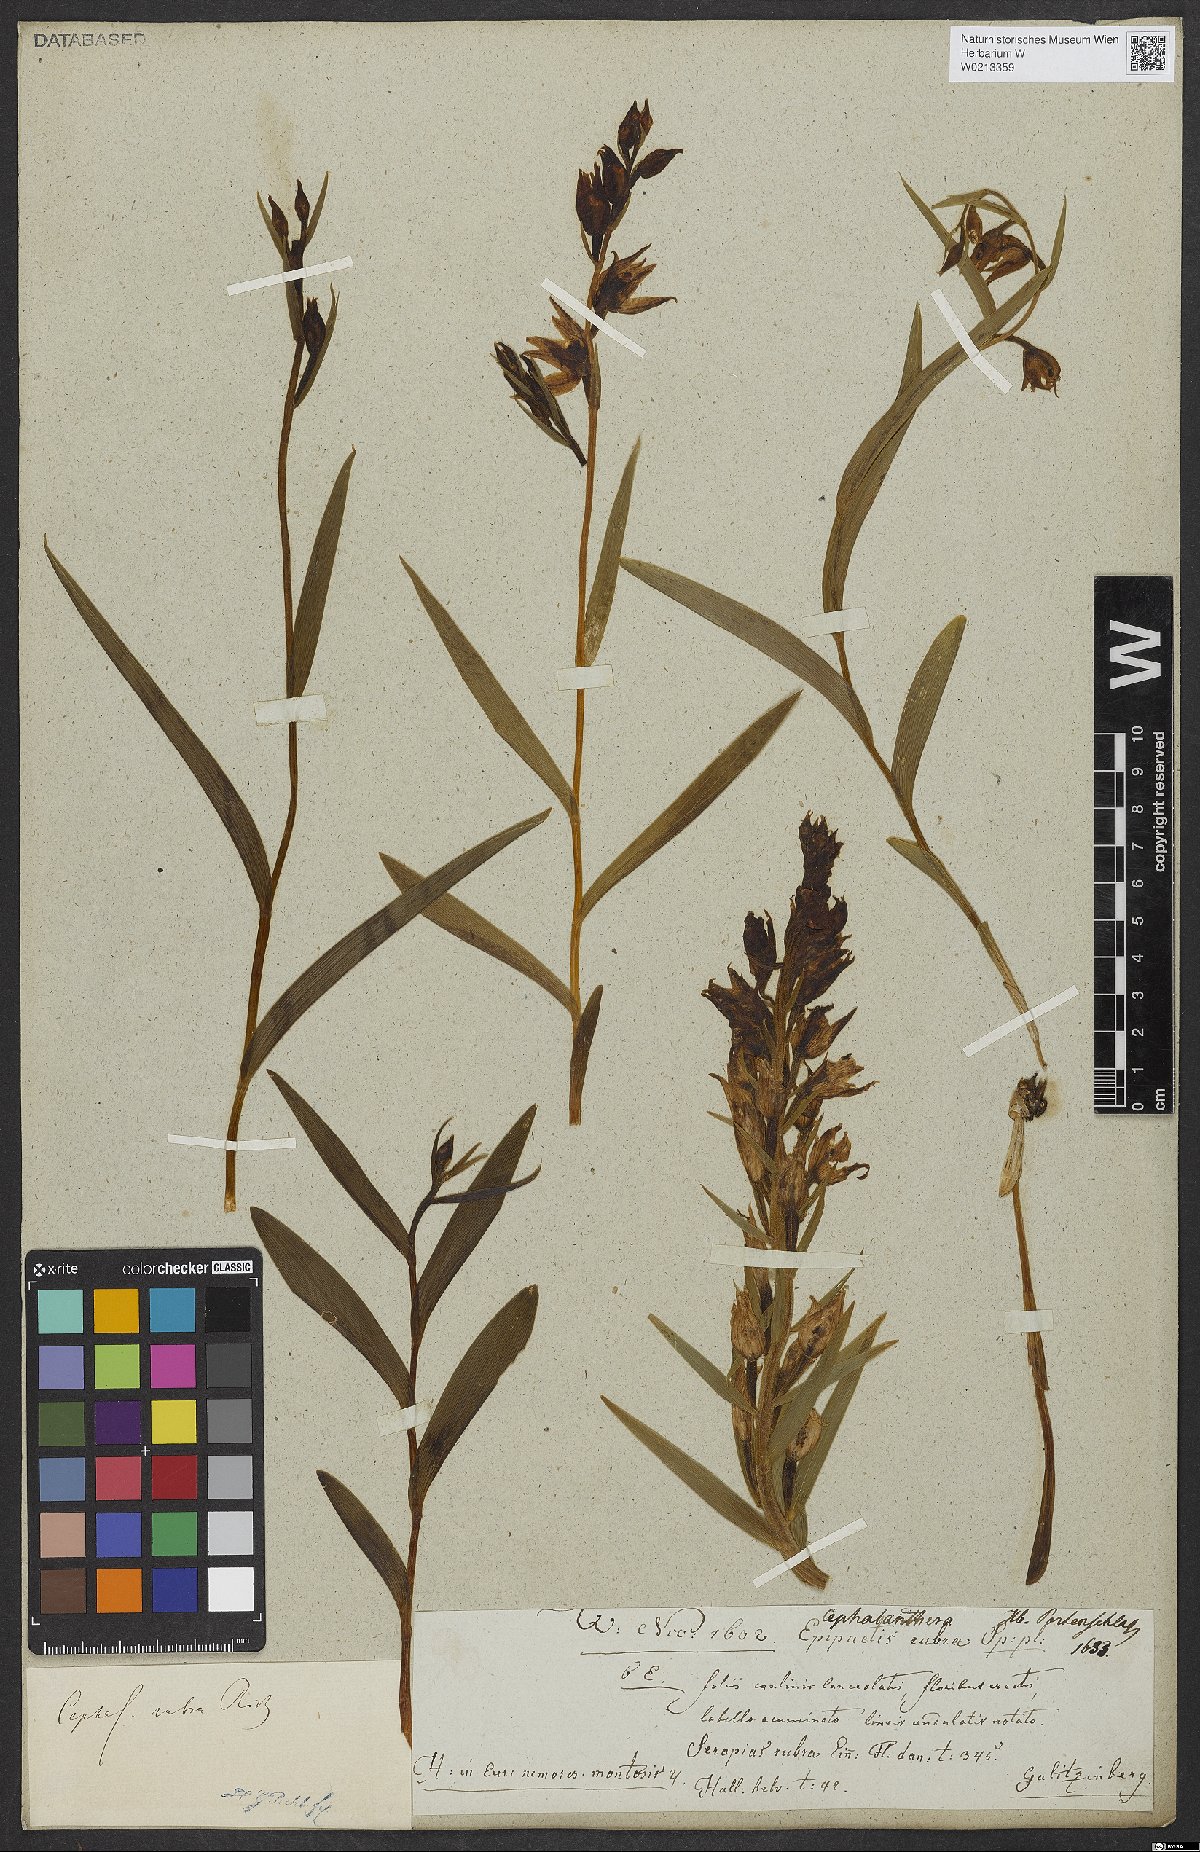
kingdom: Plantae
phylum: Tracheophyta
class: Liliopsida
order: Asparagales
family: Orchidaceae
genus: Cephalanthera
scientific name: Cephalanthera rubra
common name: Red helleborine
